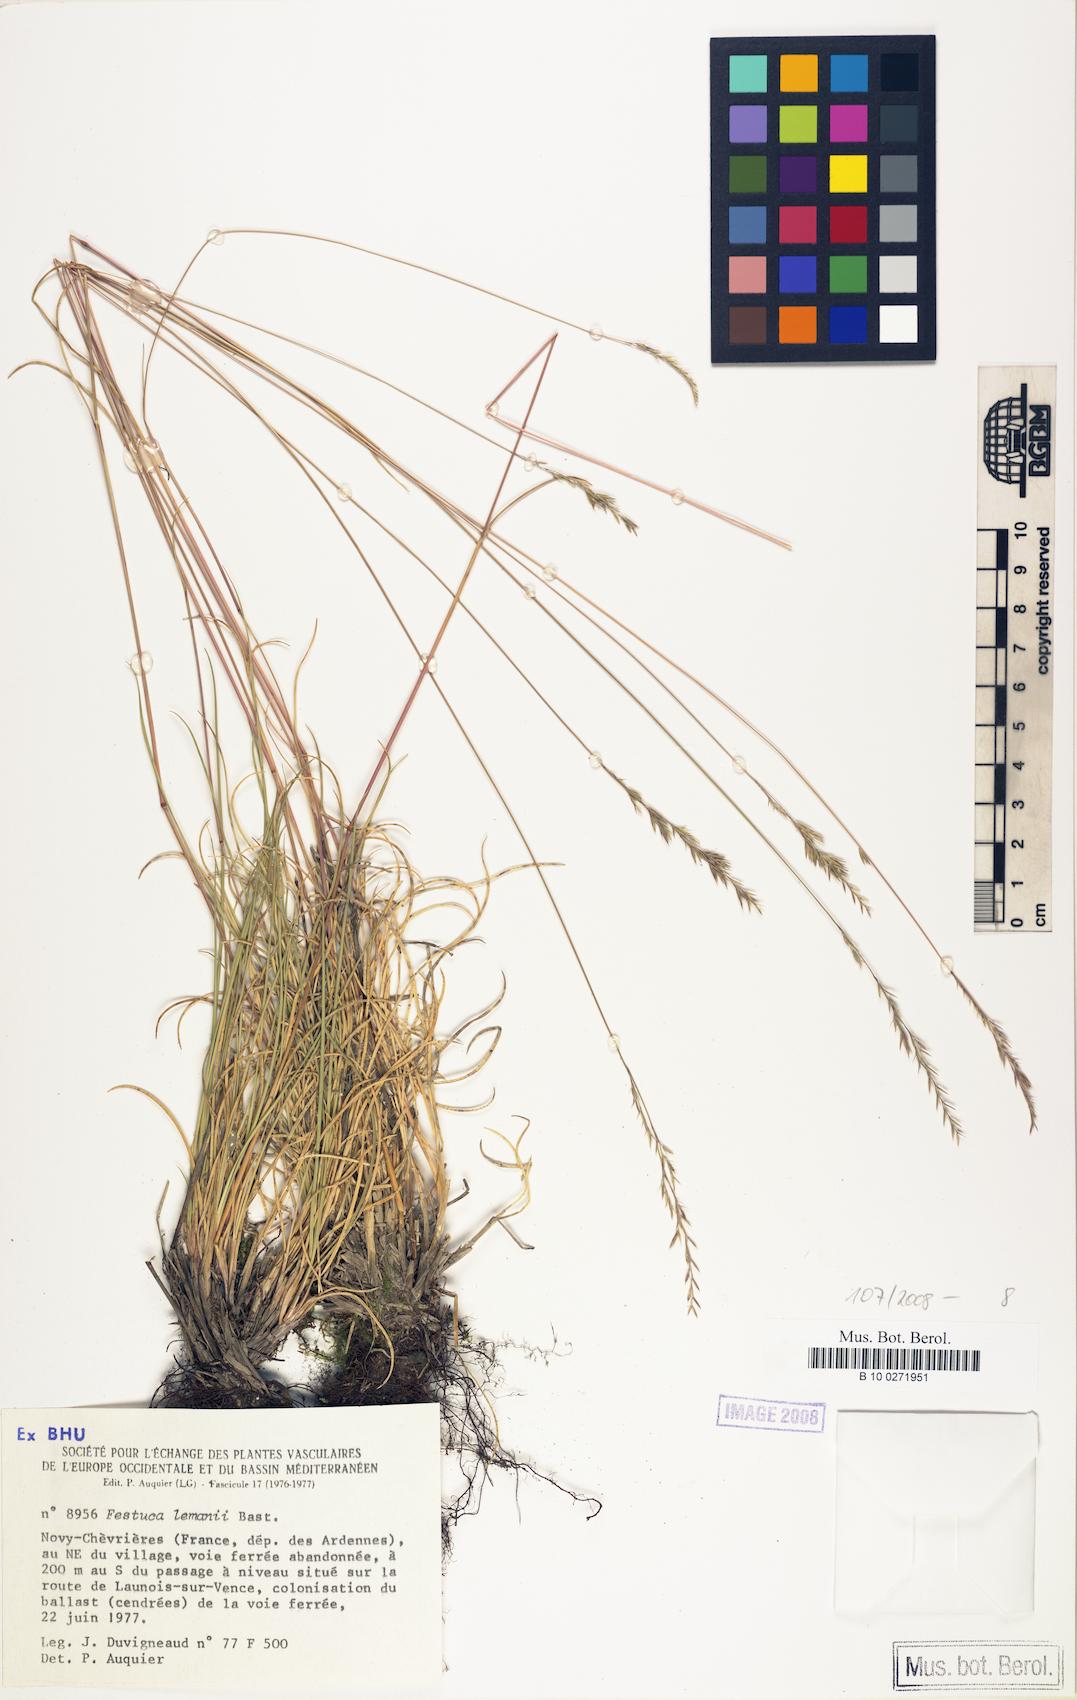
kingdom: Plantae
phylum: Tracheophyta
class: Liliopsida
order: Poales
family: Poaceae
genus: Festuca
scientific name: Festuca lemanii
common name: Confused fescue
